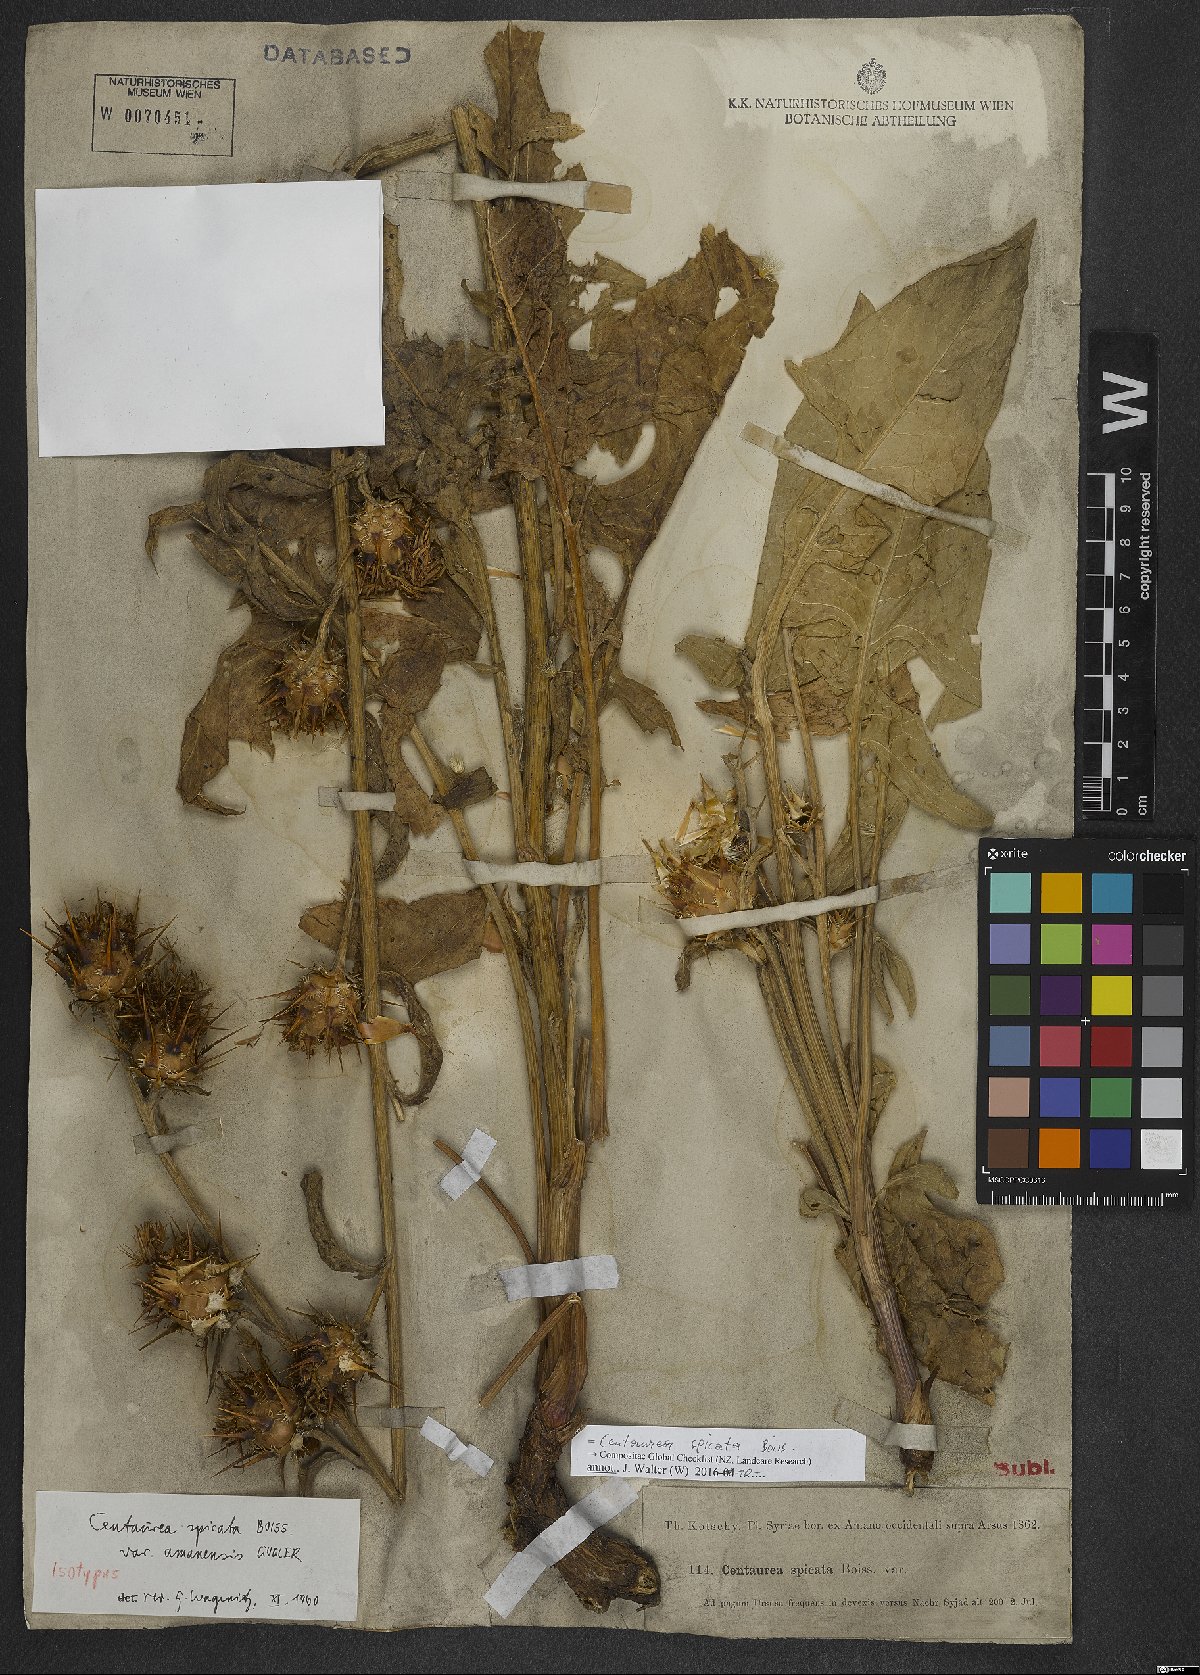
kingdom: Plantae
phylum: Tracheophyta
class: Magnoliopsida
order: Asterales
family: Asteraceae
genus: Centaurea
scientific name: Centaurea spicata
